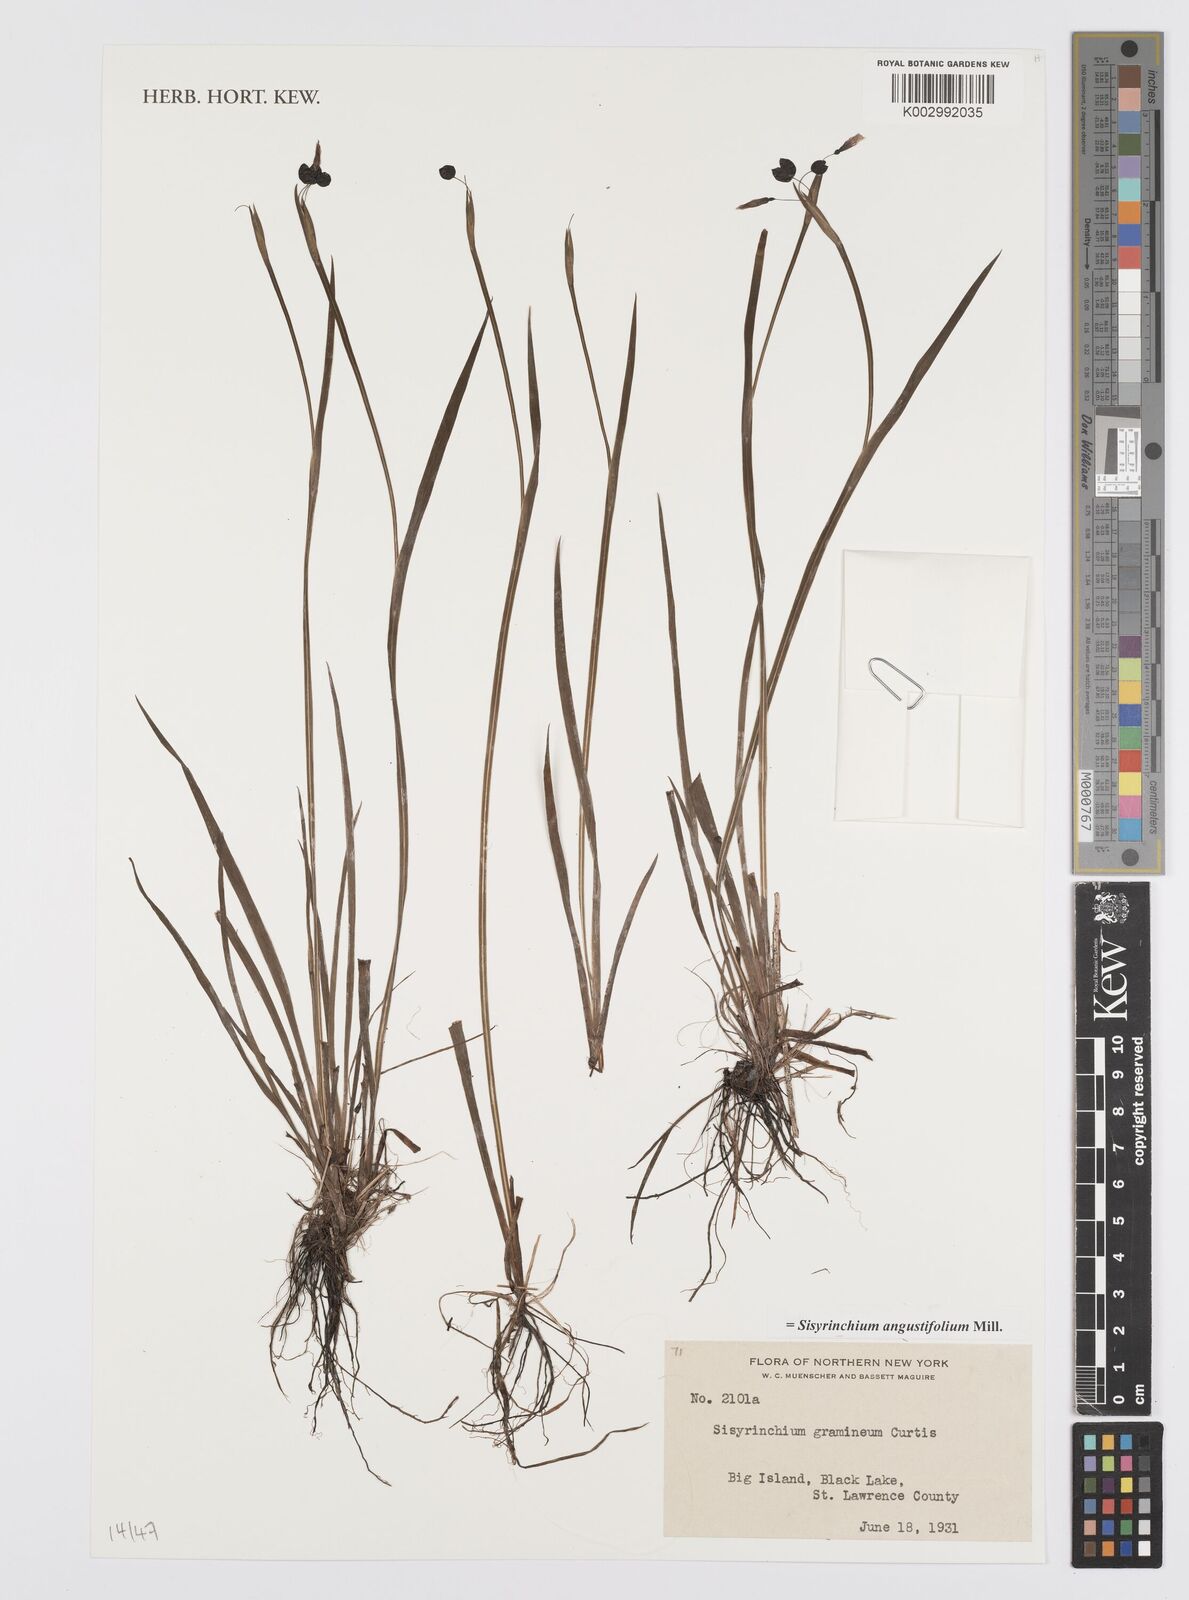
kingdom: Plantae
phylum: Tracheophyta
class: Liliopsida
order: Asparagales
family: Iridaceae
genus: Sisyrinchium
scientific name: Sisyrinchium angustifolium
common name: Narrow-leaf blue-eyed-grass
